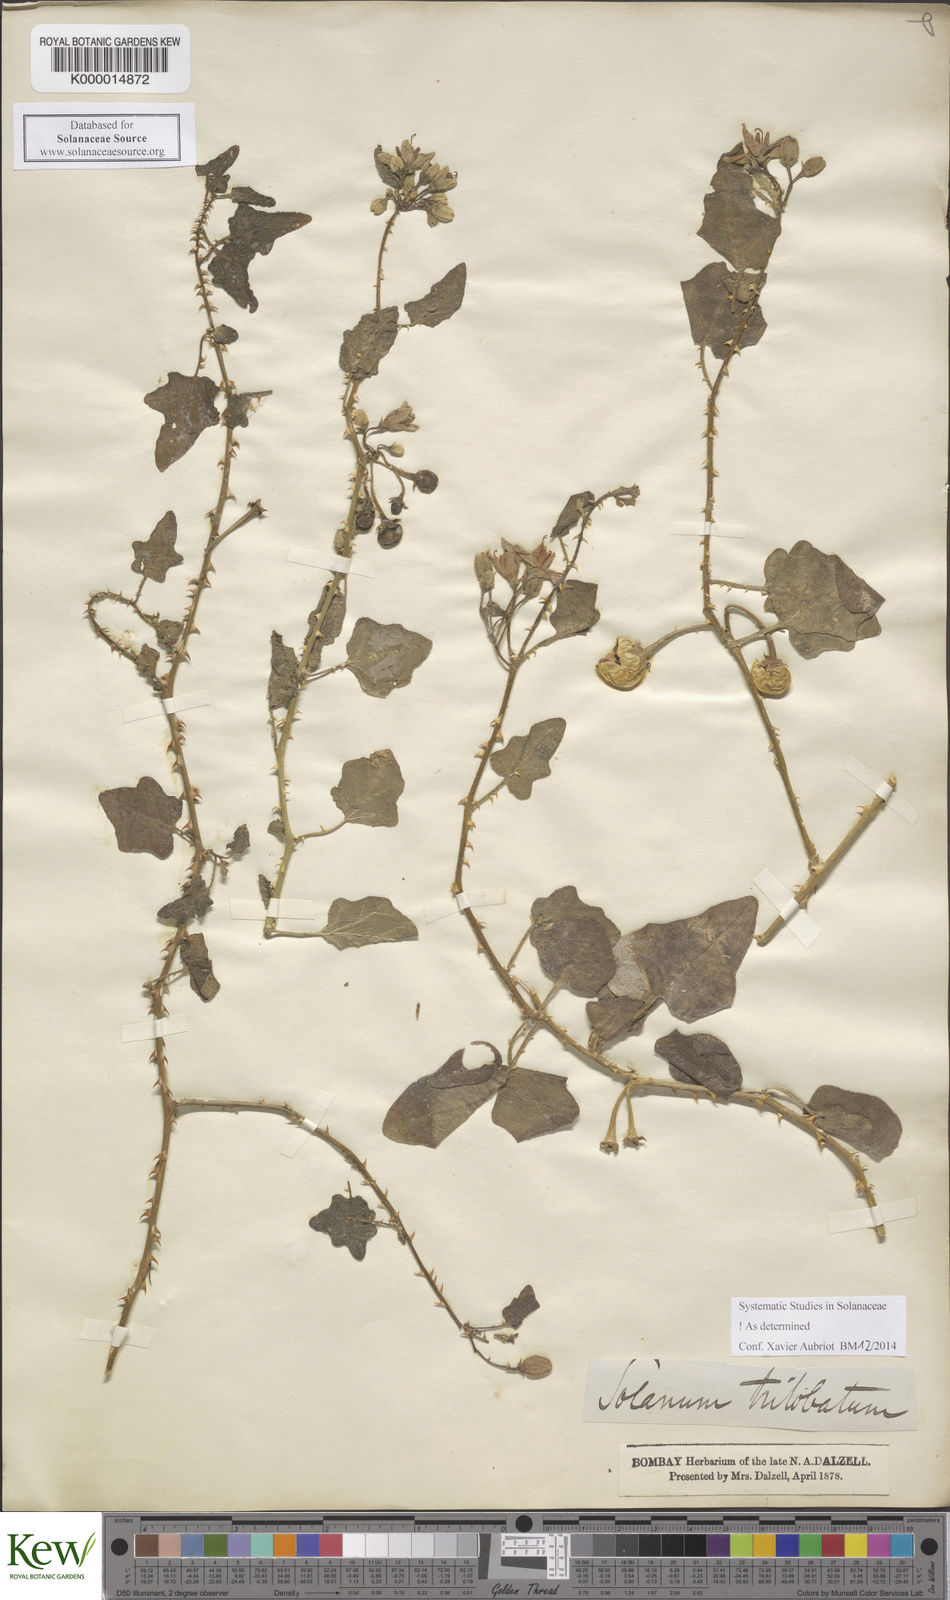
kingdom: Plantae
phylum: Tracheophyta
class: Magnoliopsida
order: Solanales
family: Solanaceae
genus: Solanum
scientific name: Solanum trilobatum
